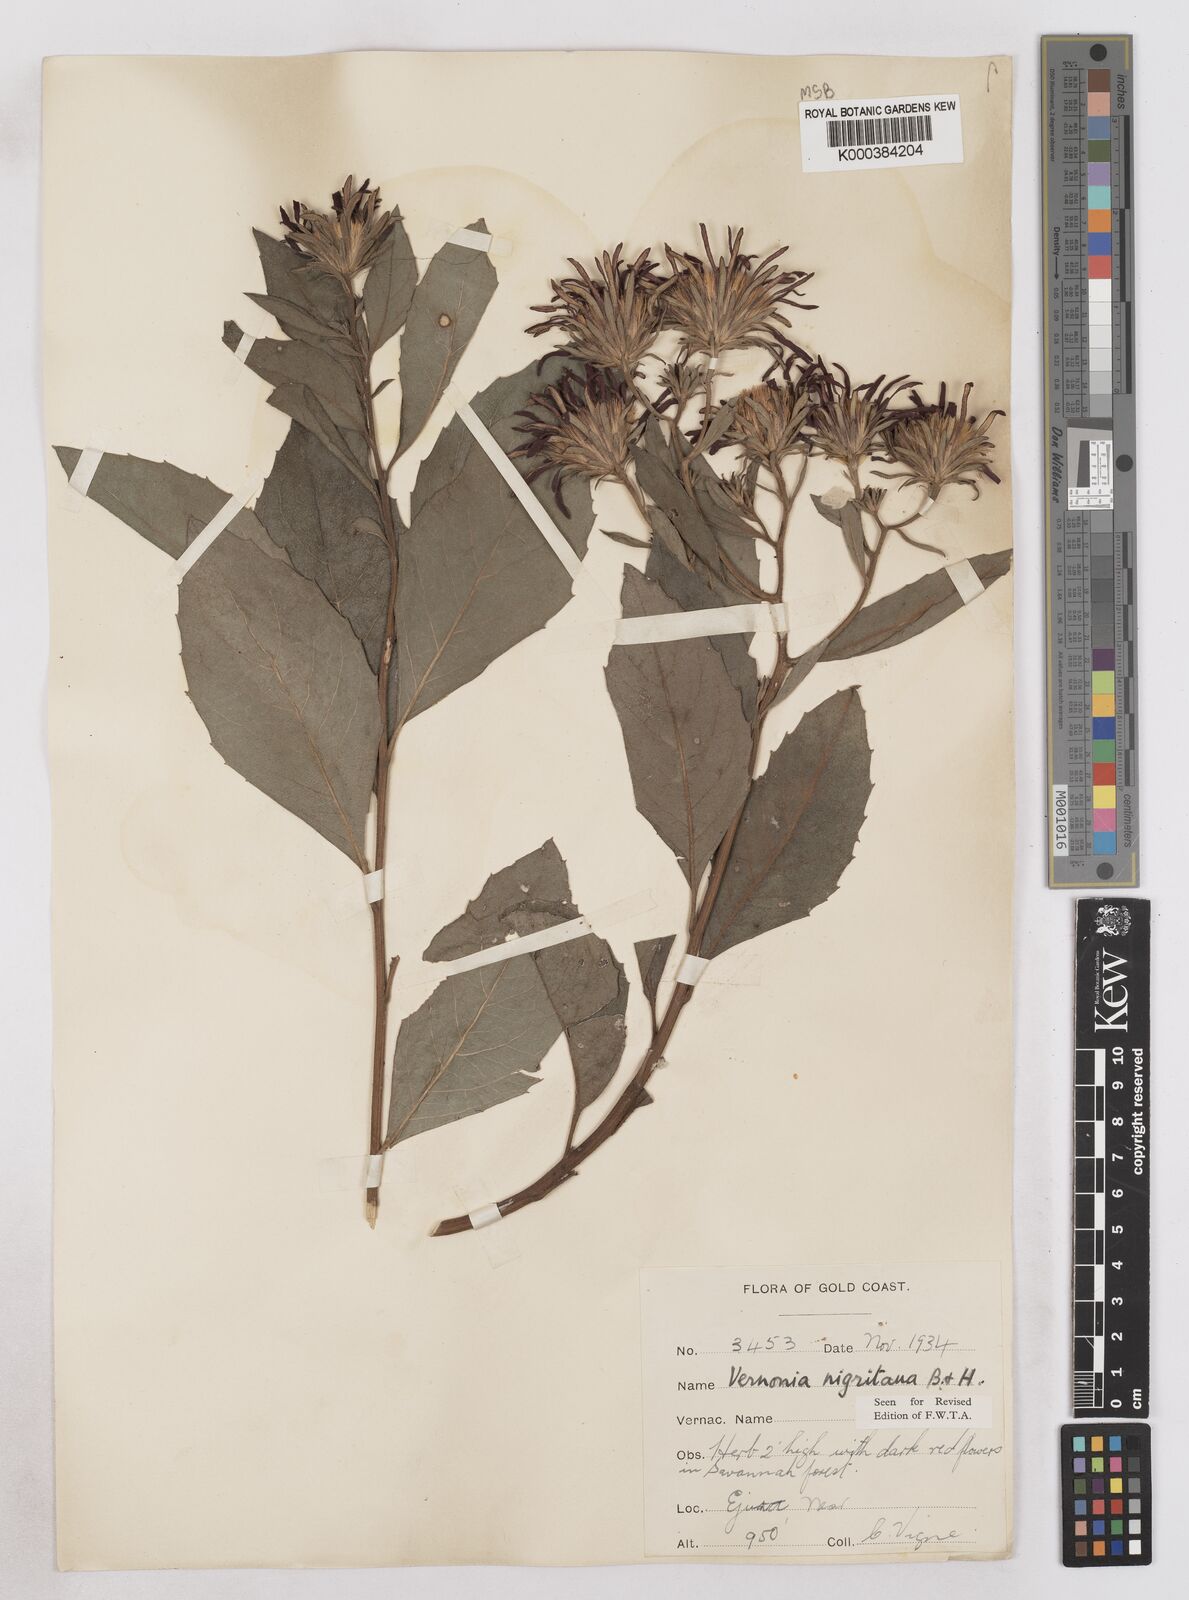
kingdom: Plantae
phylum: Tracheophyta
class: Magnoliopsida
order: Asterales
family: Asteraceae
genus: Linzia
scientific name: Linzia nigritiana
